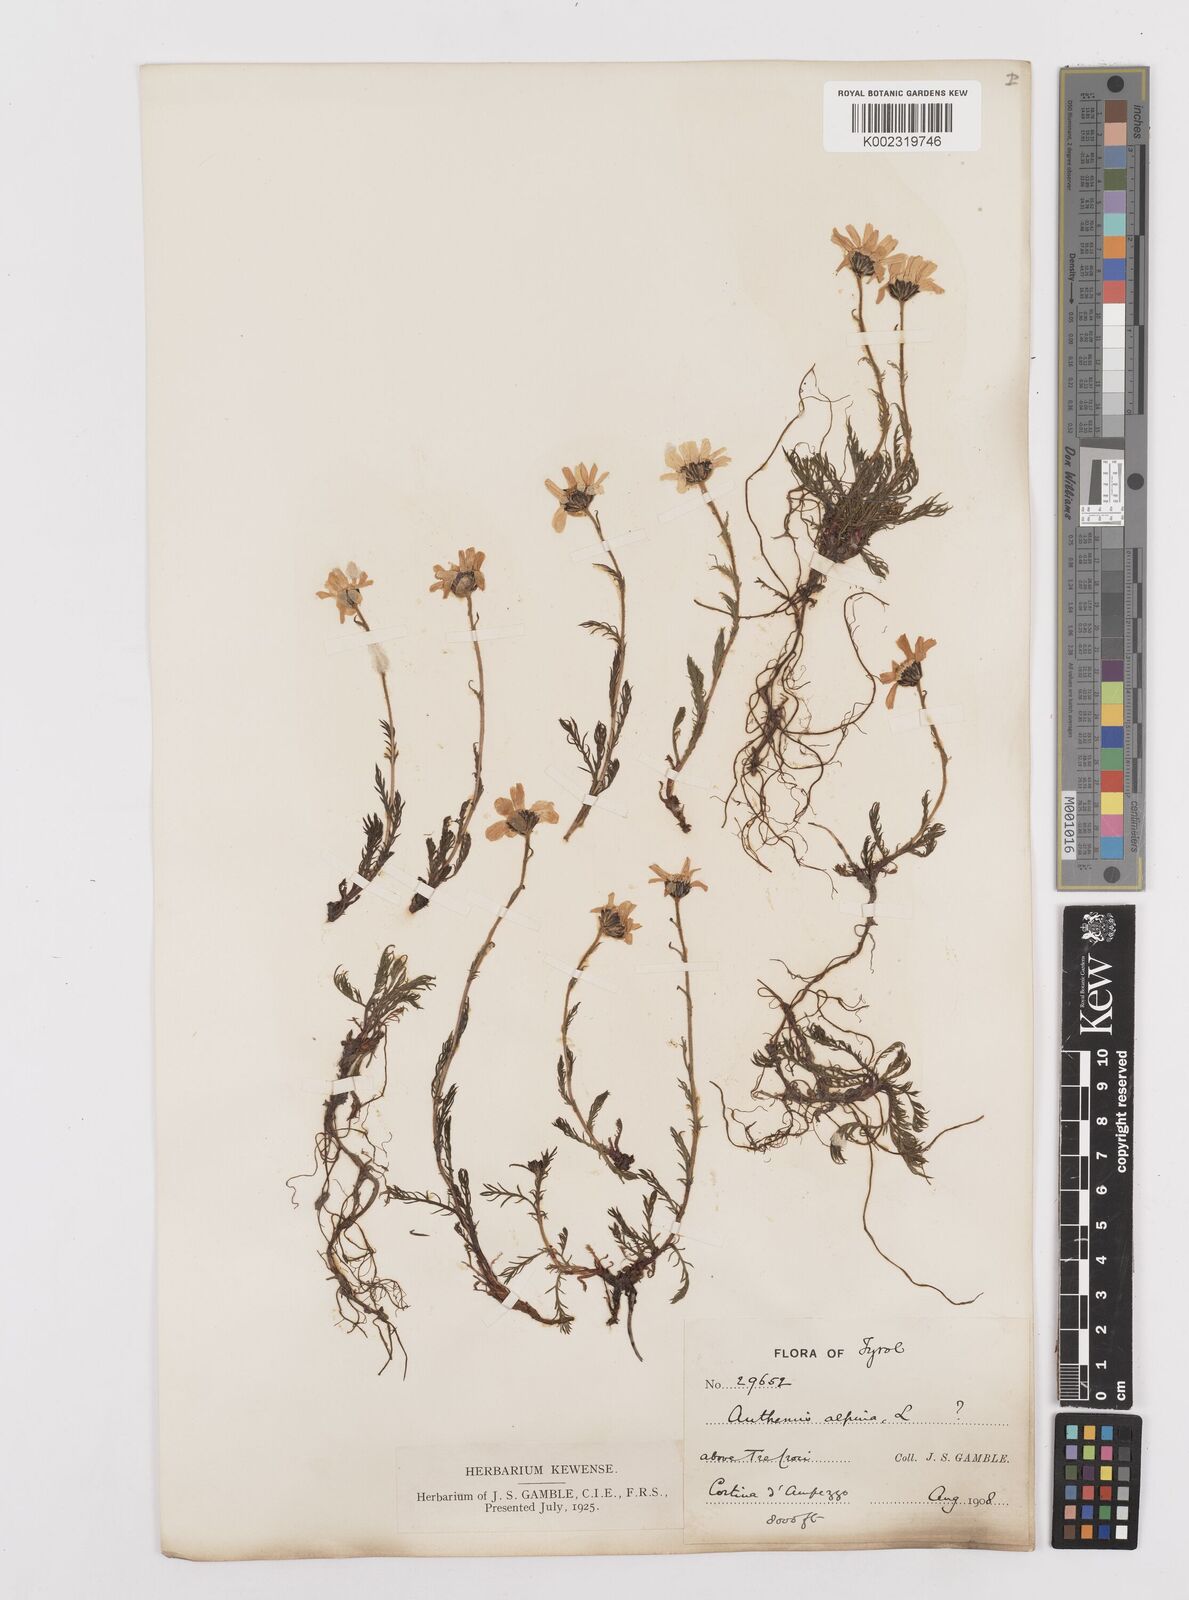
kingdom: Plantae
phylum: Tracheophyta
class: Magnoliopsida
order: Asterales
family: Asteraceae
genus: Achillea
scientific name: Achillea oxyloba
